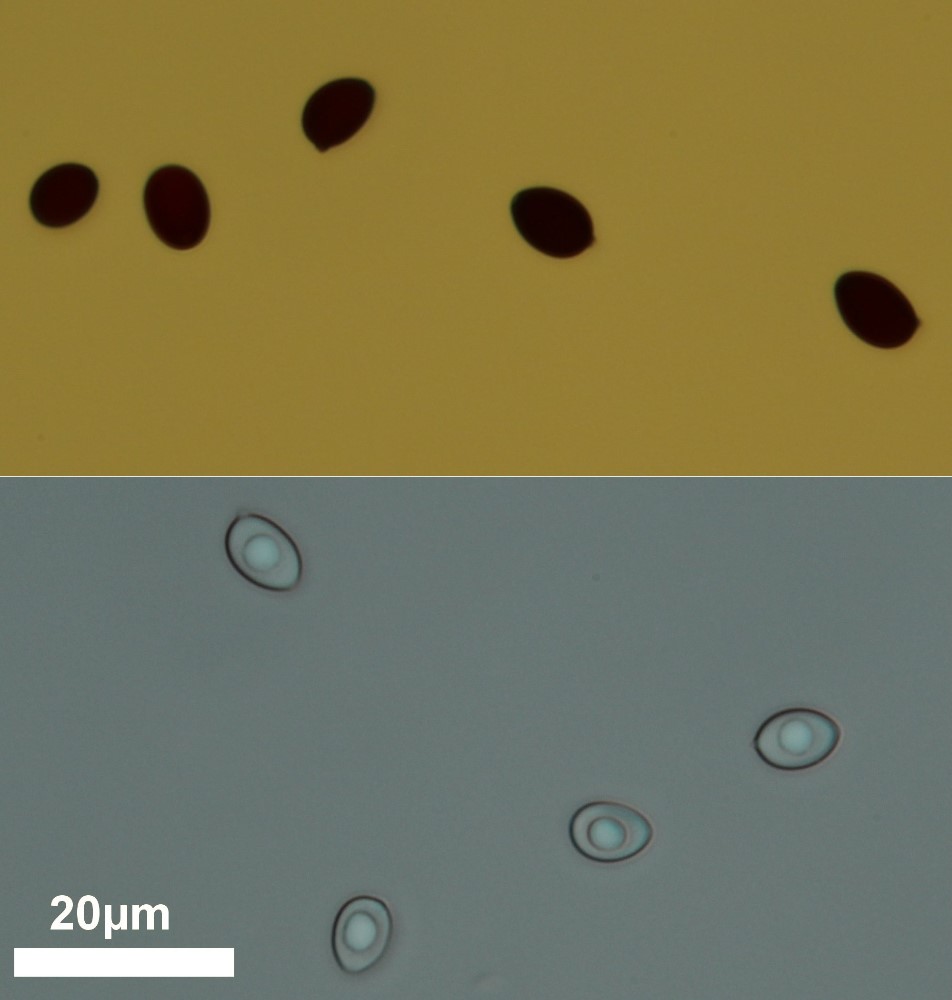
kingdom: Fungi
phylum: Basidiomycota
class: Agaricomycetes
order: Agaricales
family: Agaricaceae
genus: Leucoagaricus
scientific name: Leucoagaricus leucothites
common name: rosabladet silkehat
